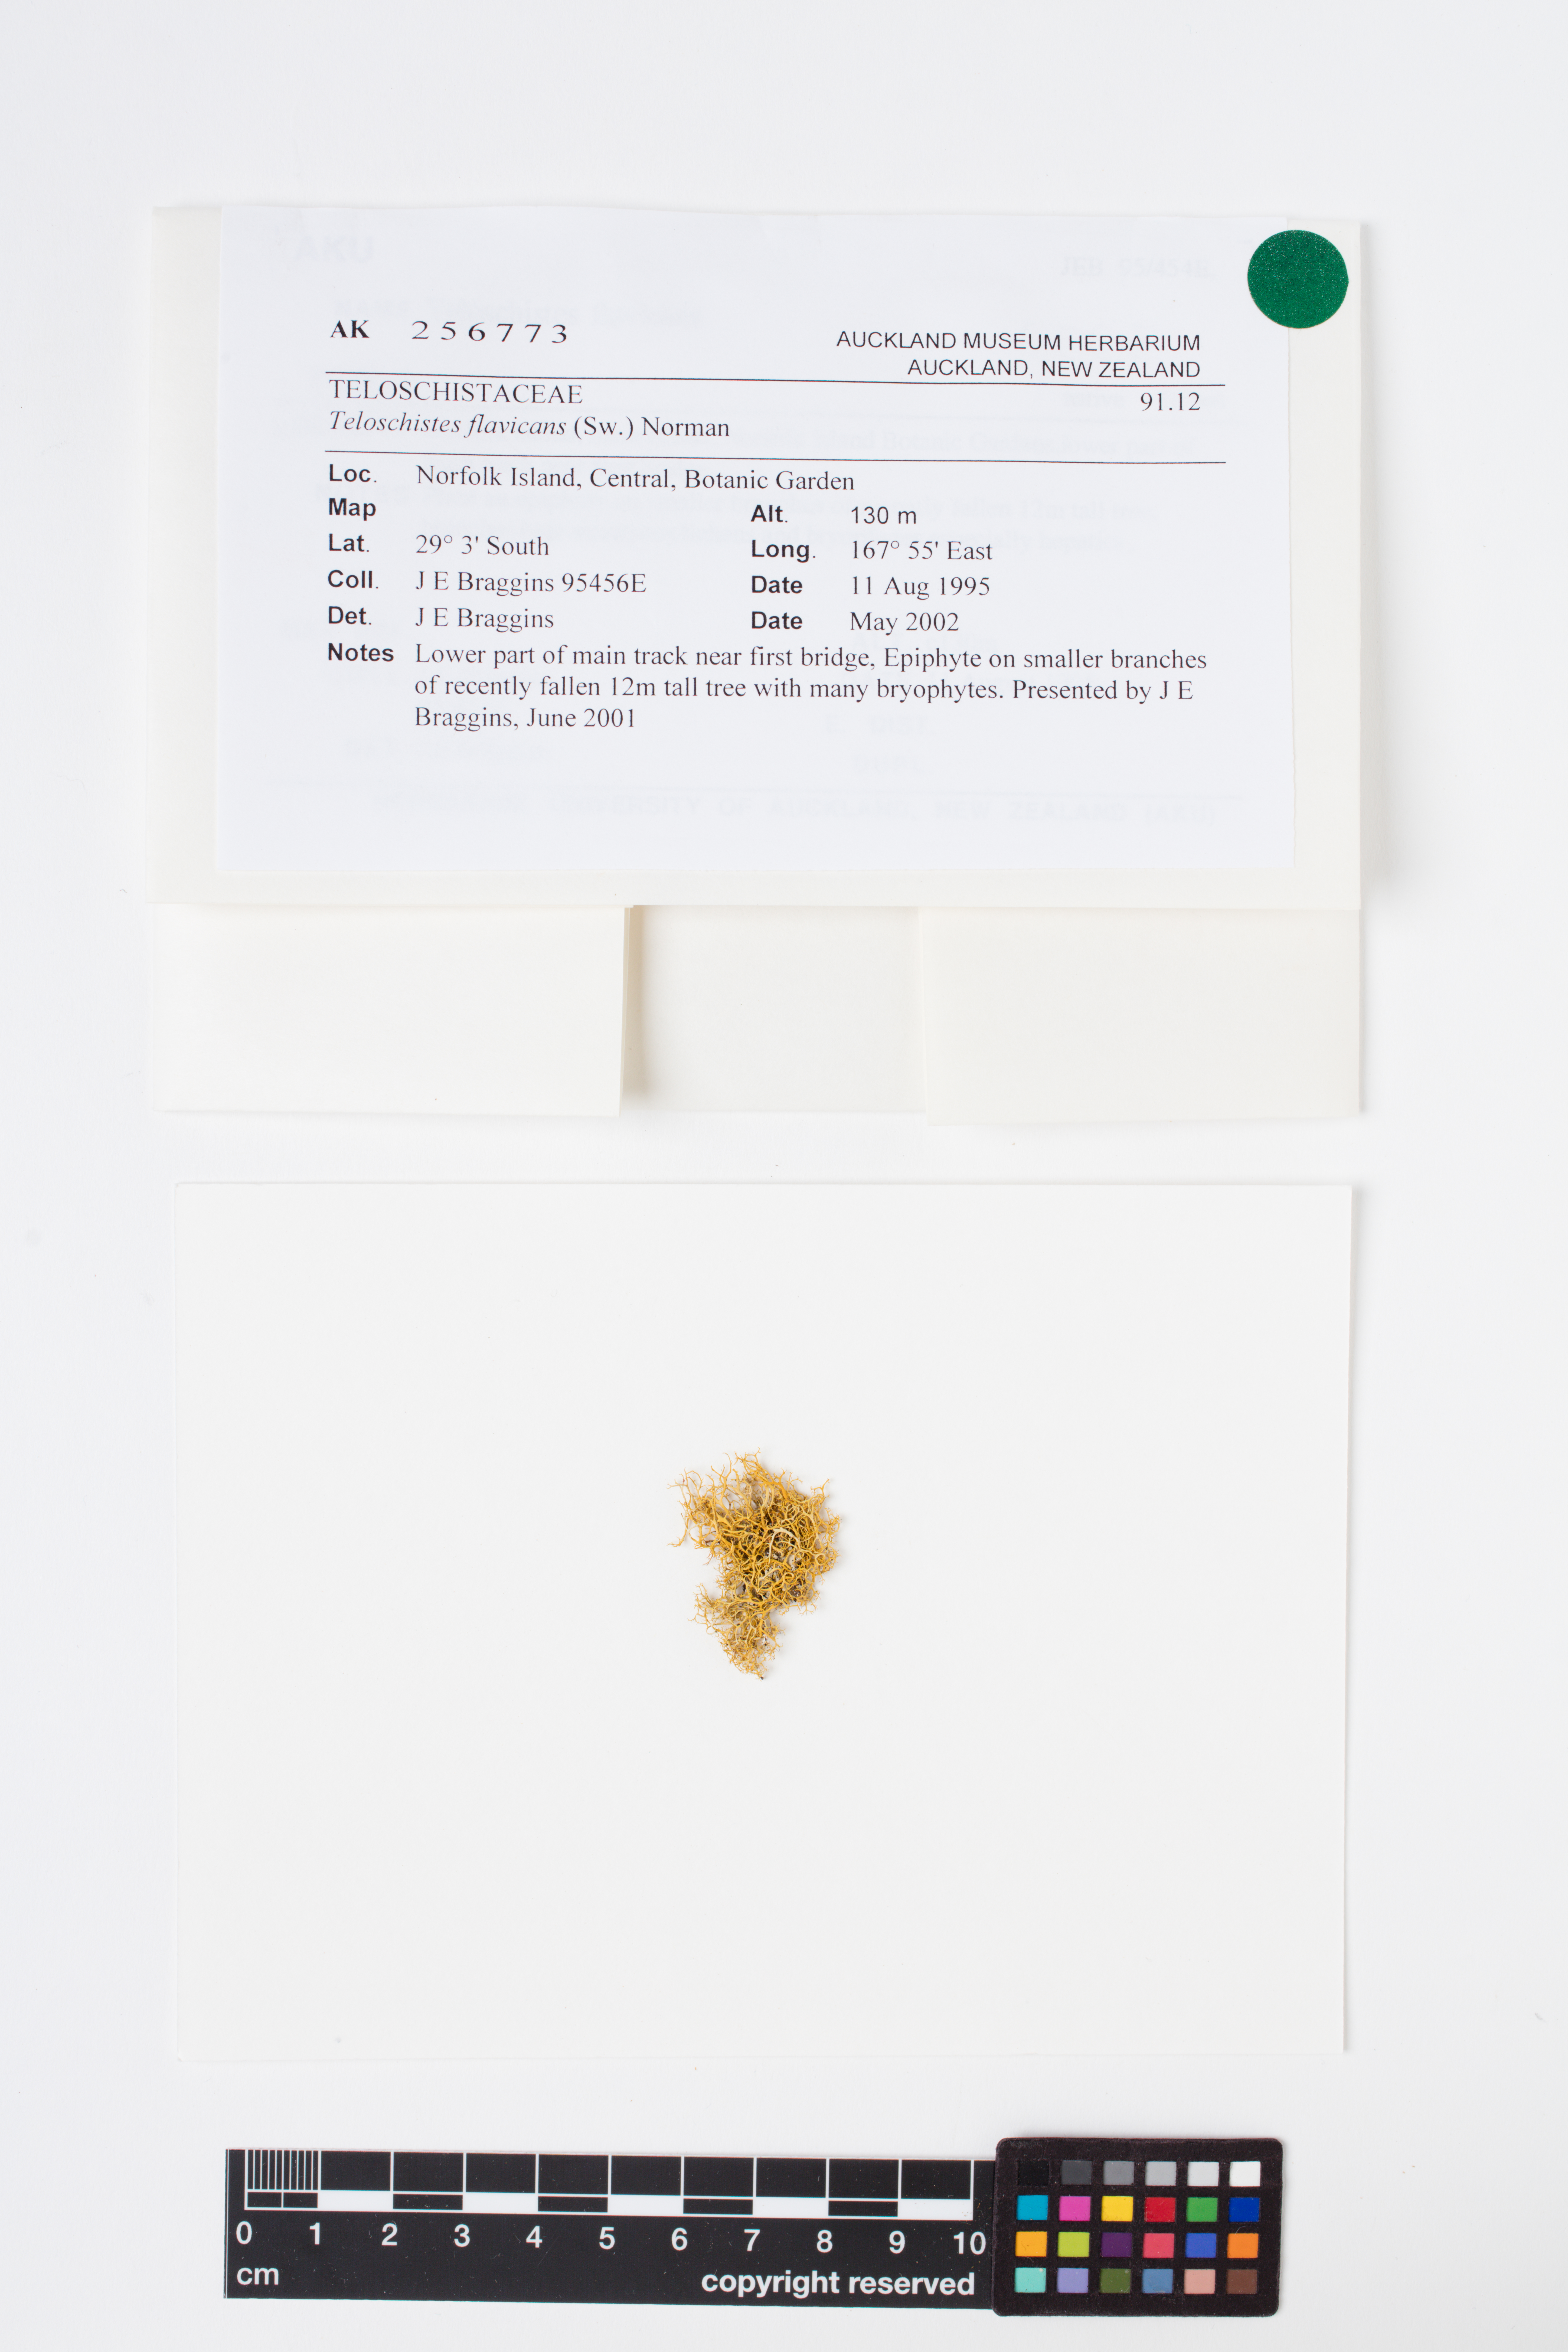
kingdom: Fungi
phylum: Ascomycota
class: Lecanoromycetes
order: Teloschistales
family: Teloschistaceae
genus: Teloschistes
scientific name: Teloschistes flavicans
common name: Golden hair-lichen
